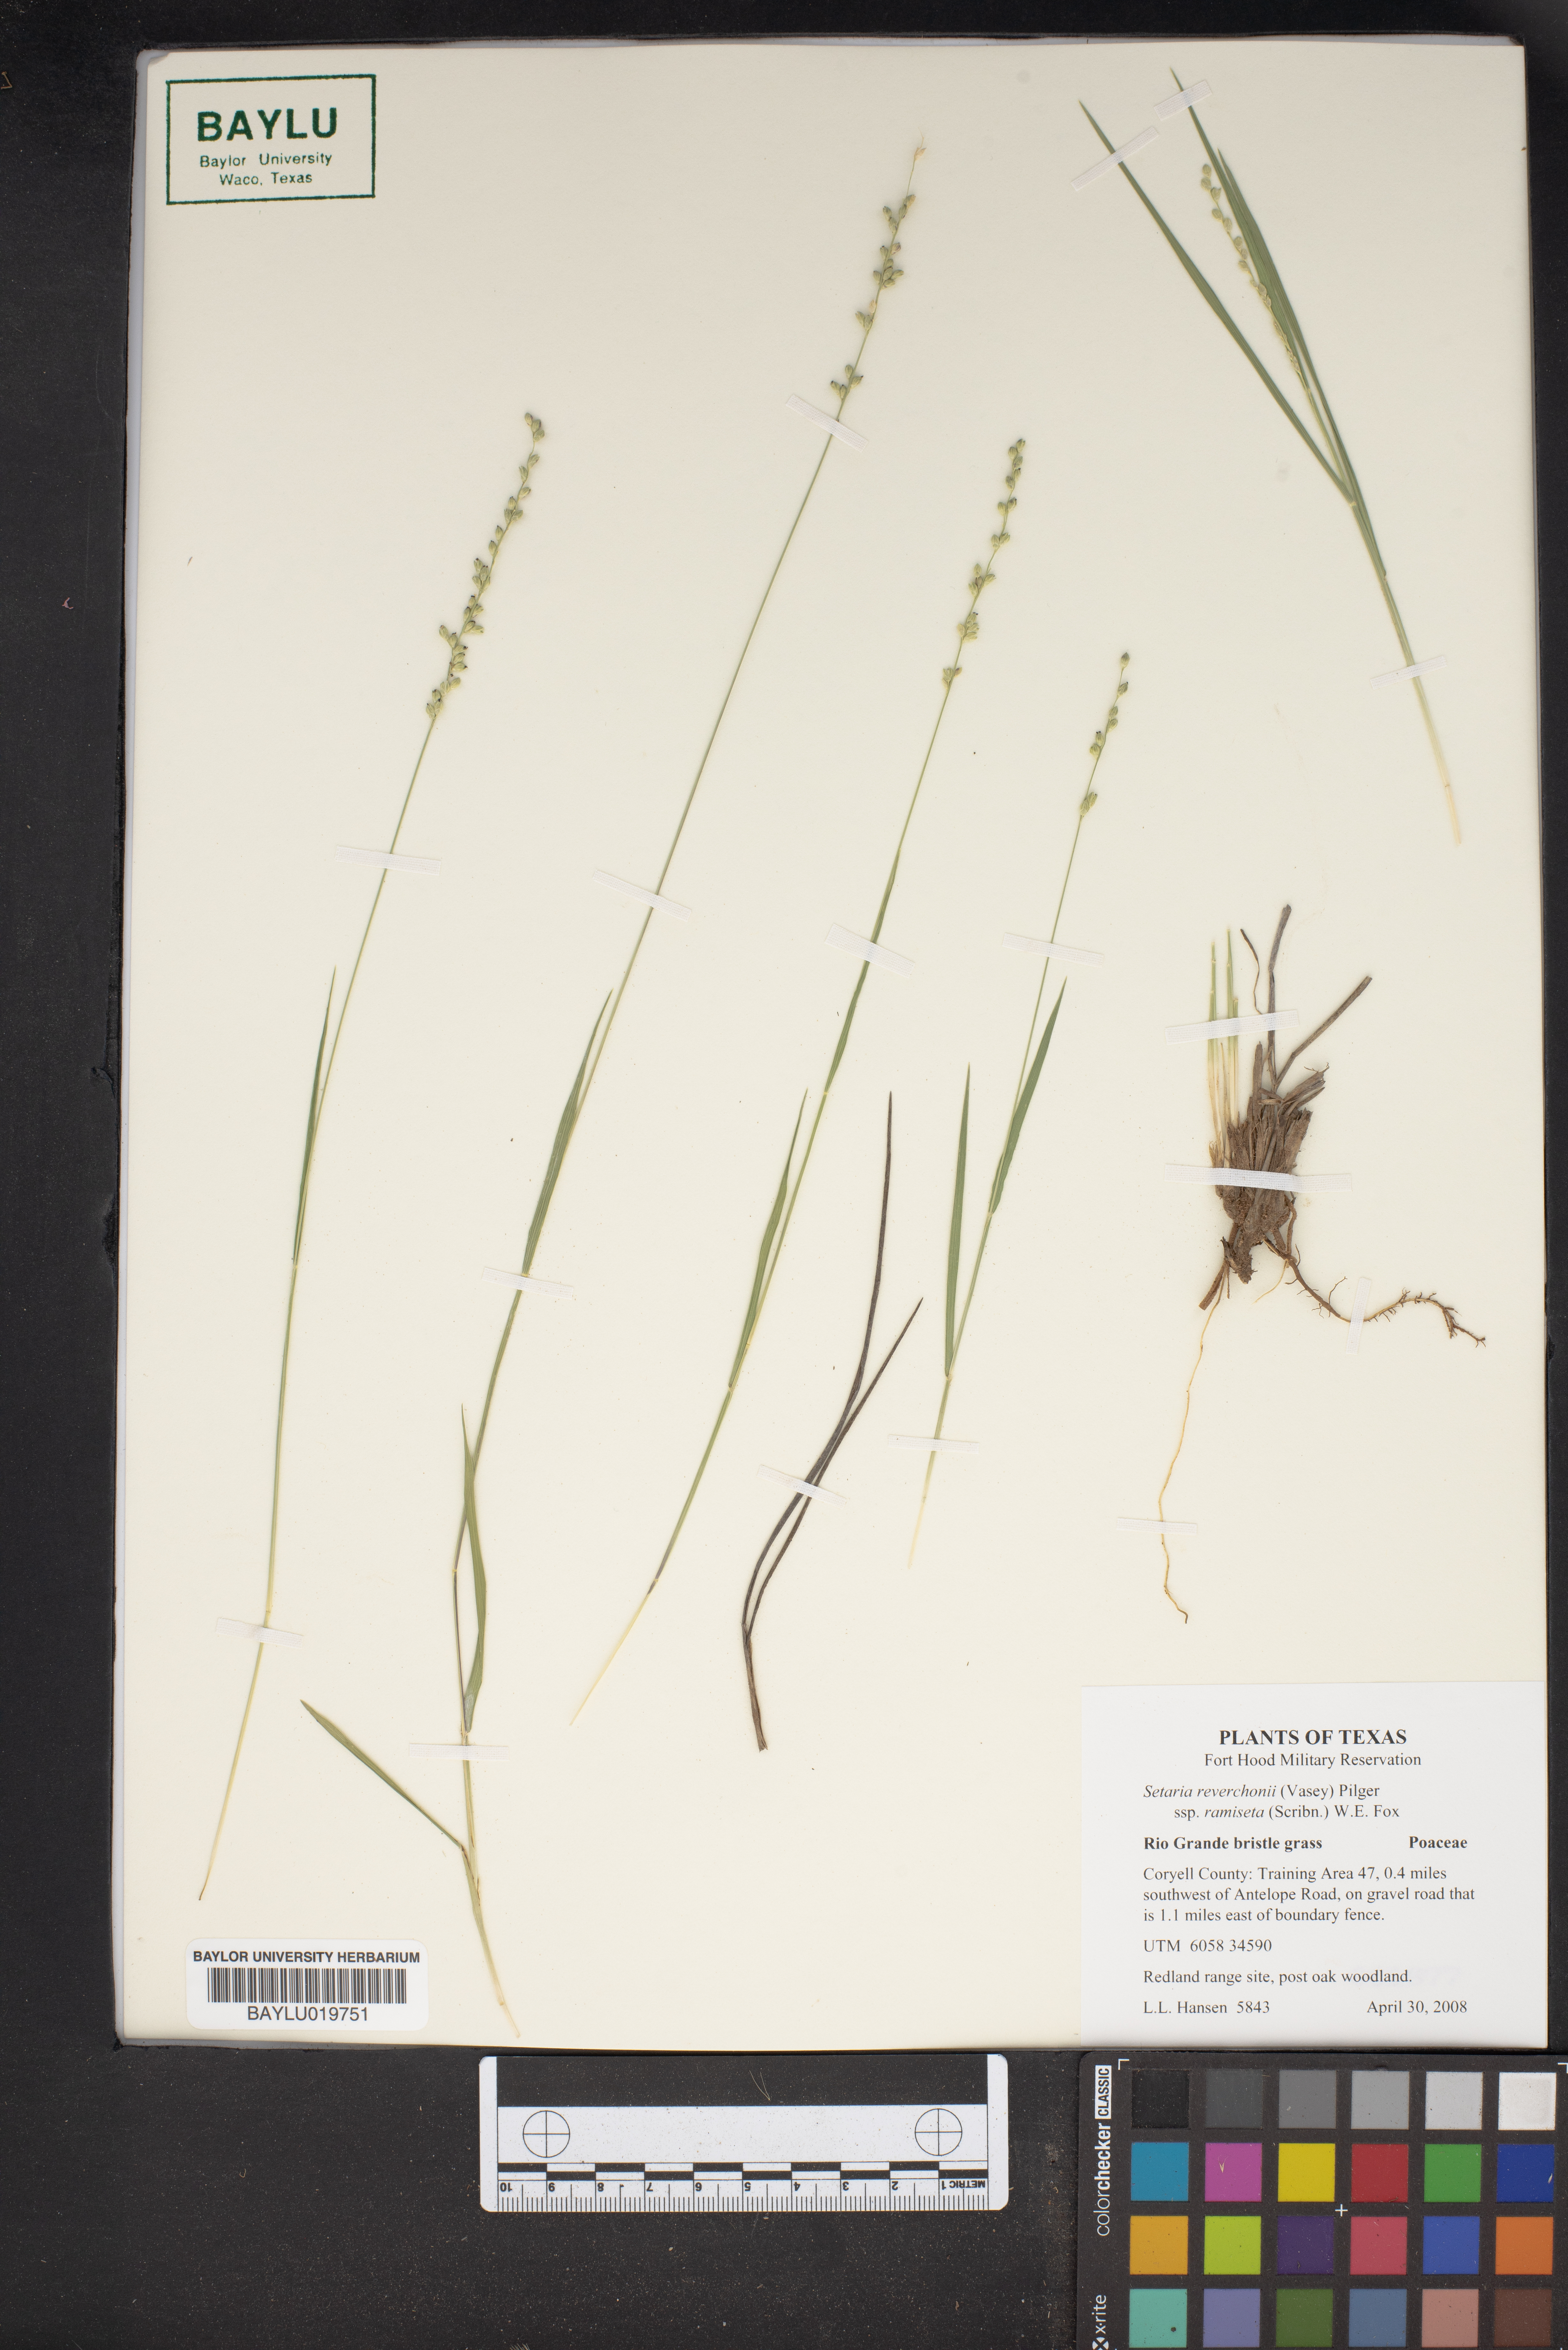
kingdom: Plantae
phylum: Tracheophyta
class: Liliopsida
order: Poales
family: Poaceae
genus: Setaria
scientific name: Setaria reverchonii
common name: Reverchon's bristle grass
